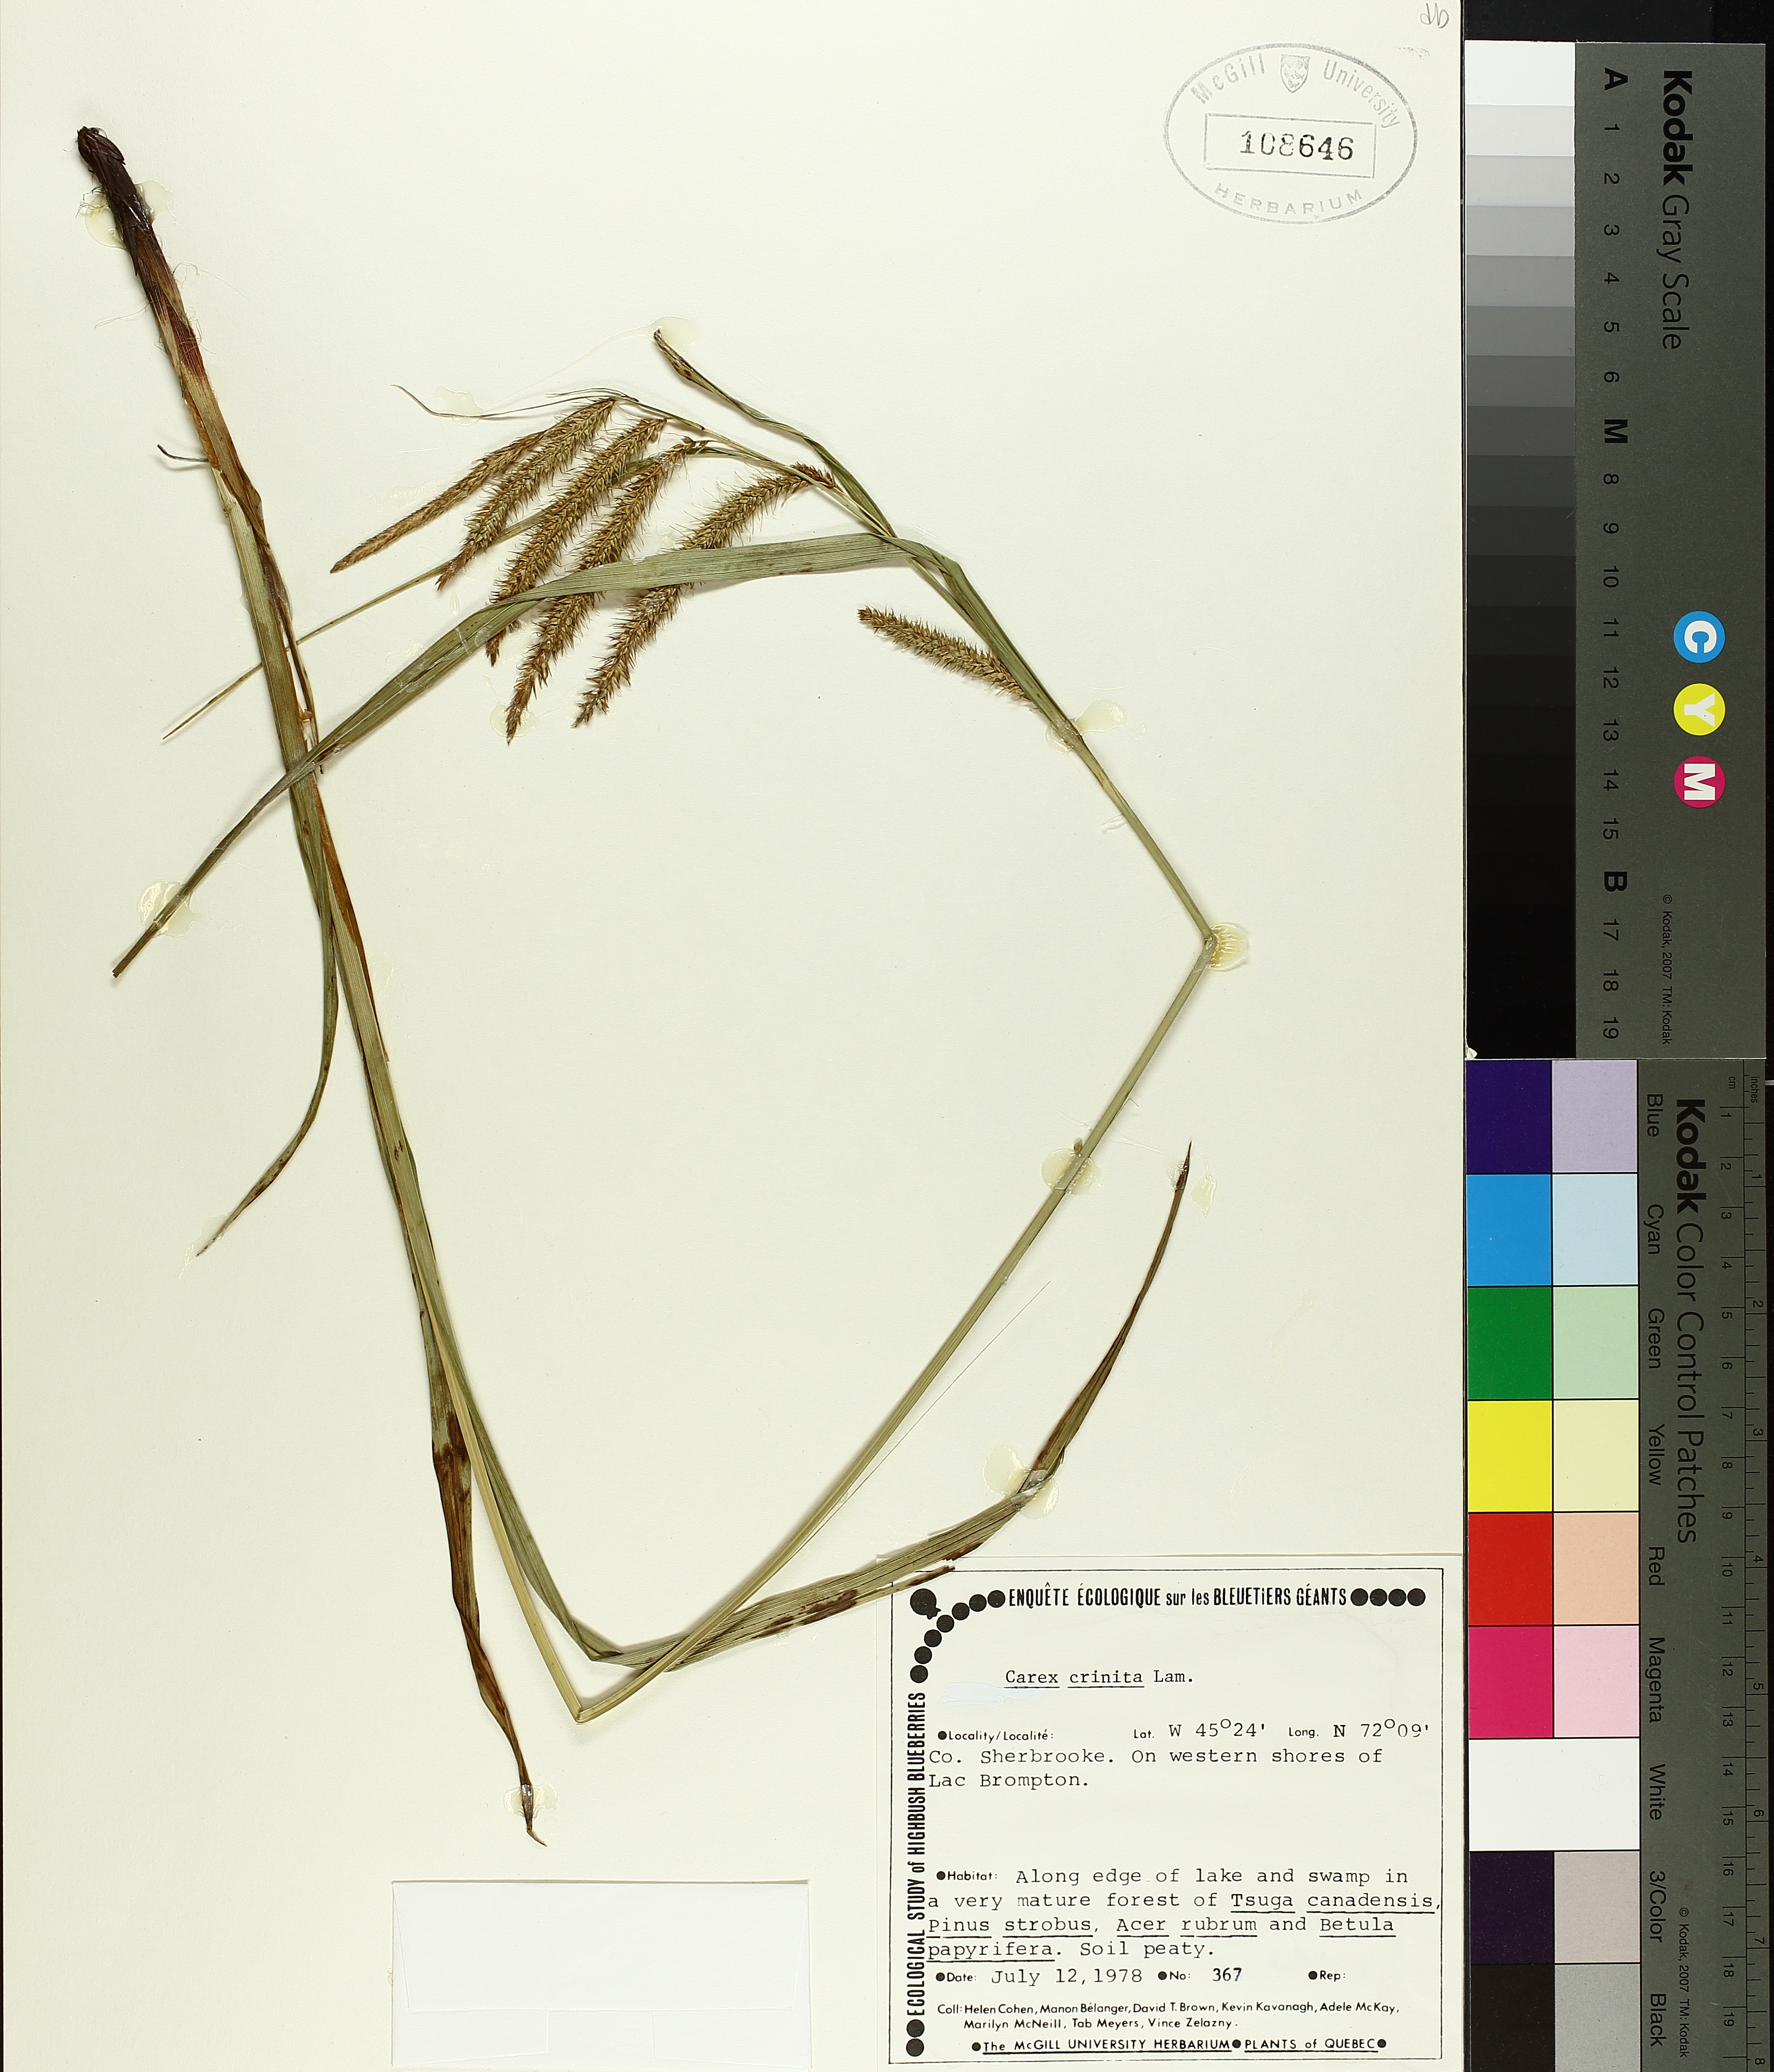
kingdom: Plantae
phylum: Tracheophyta
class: Liliopsida
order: Poales
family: Cyperaceae
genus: Carex
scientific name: Carex crinita
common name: Fringed sedge
